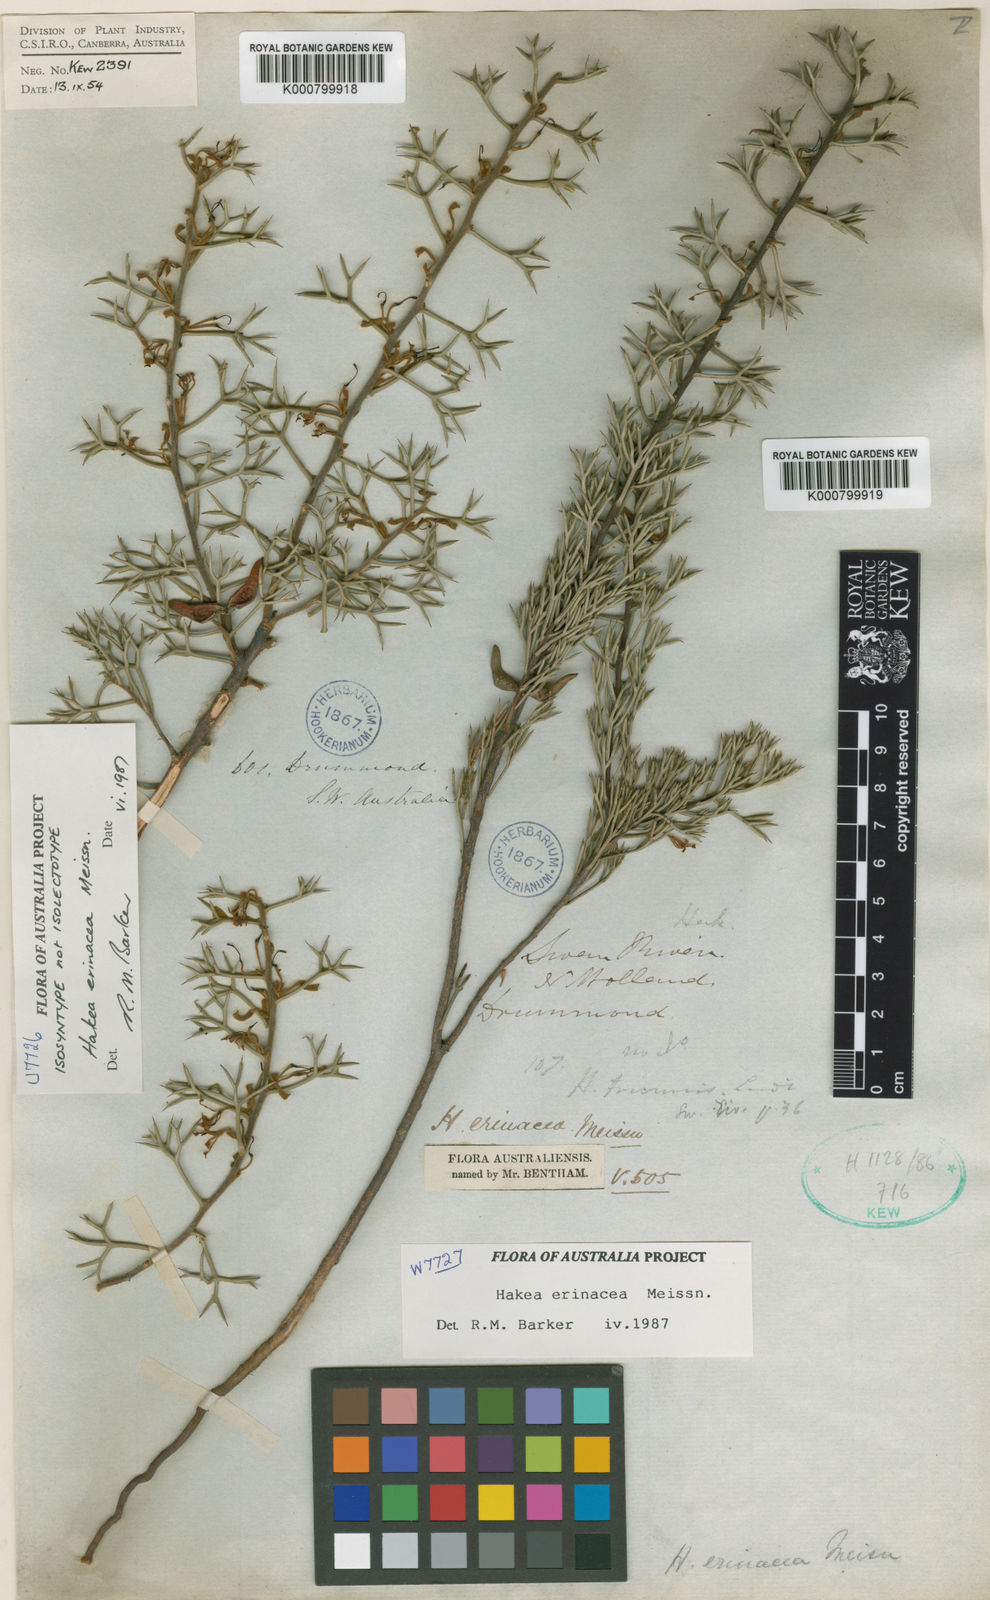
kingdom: Plantae
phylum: Tracheophyta
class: Magnoliopsida
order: Proteales
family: Proteaceae
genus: Hakea
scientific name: Hakea erinacea
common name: Hedgehog hakea
